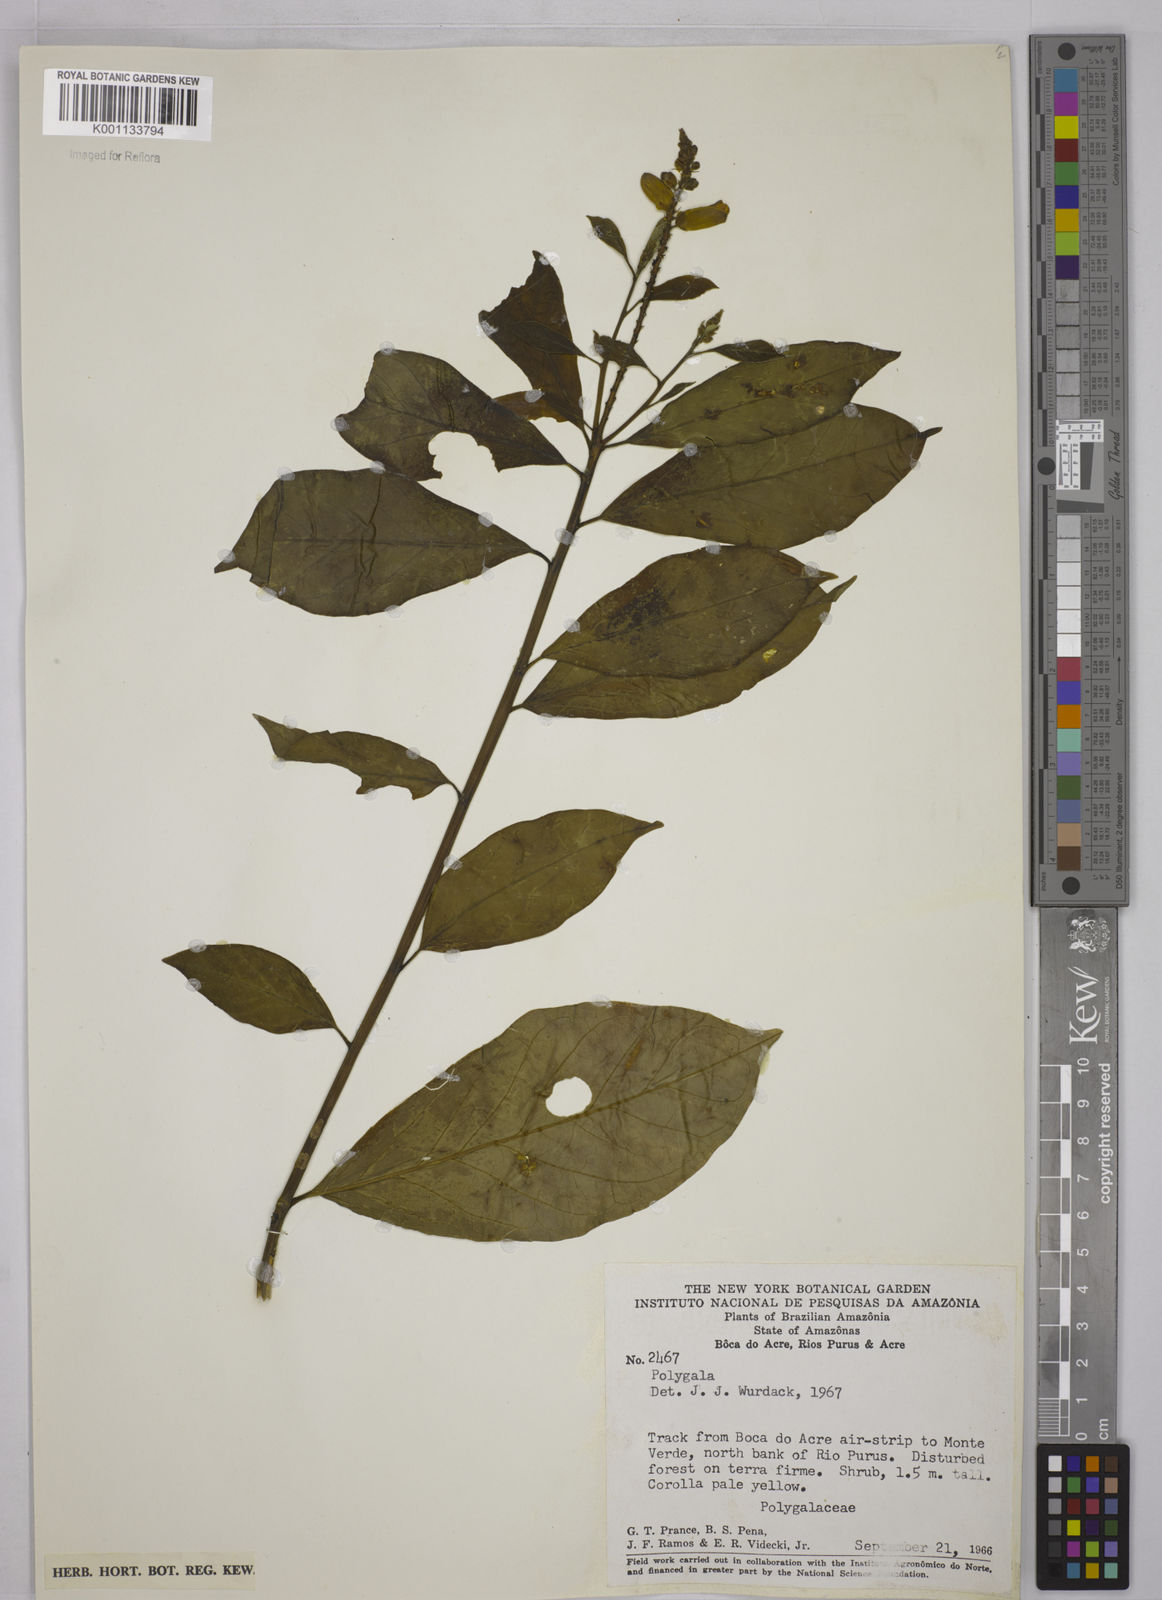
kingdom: Plantae
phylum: Tracheophyta
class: Magnoliopsida
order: Fabales
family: Polygalaceae
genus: Polygala
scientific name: Polygala
